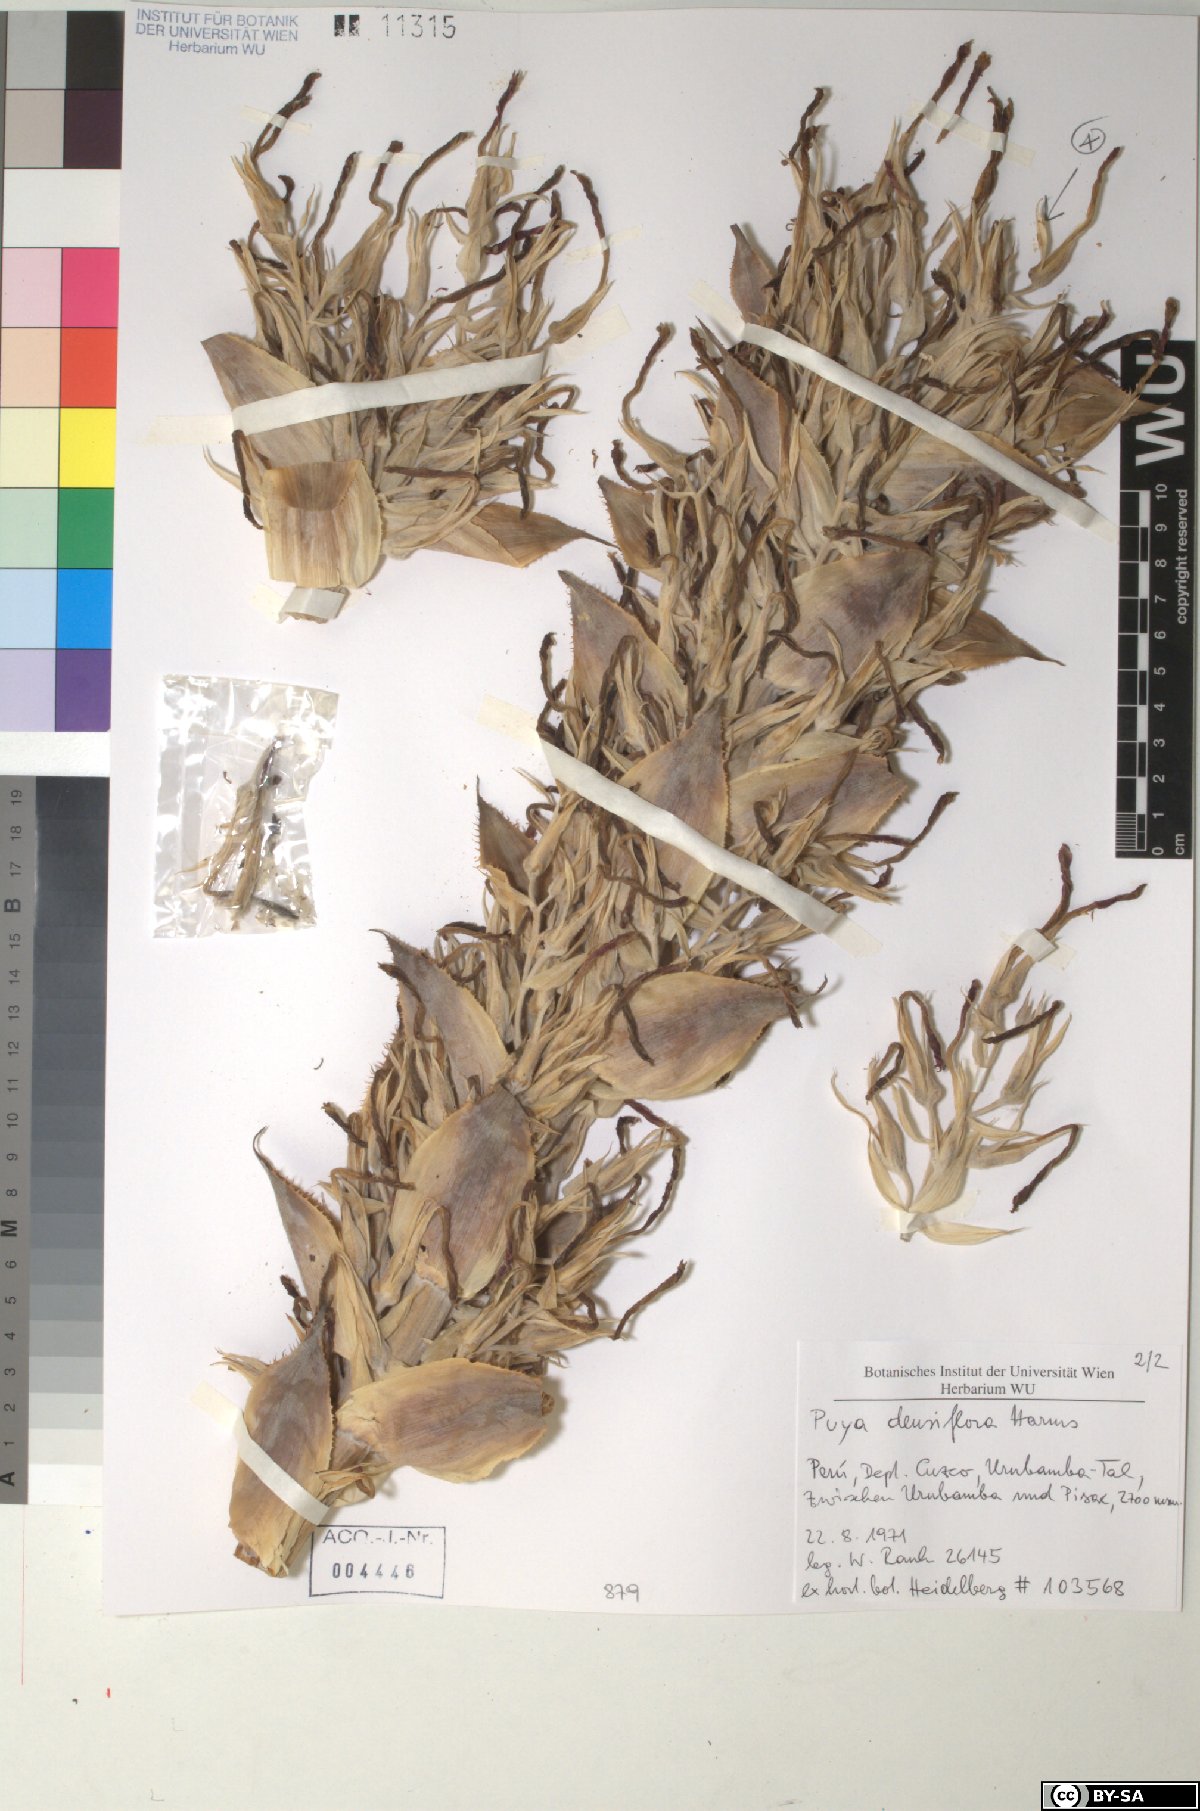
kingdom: Plantae
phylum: Tracheophyta
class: Liliopsida
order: Poales
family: Bromeliaceae
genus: Puya
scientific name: Puya densiflora
